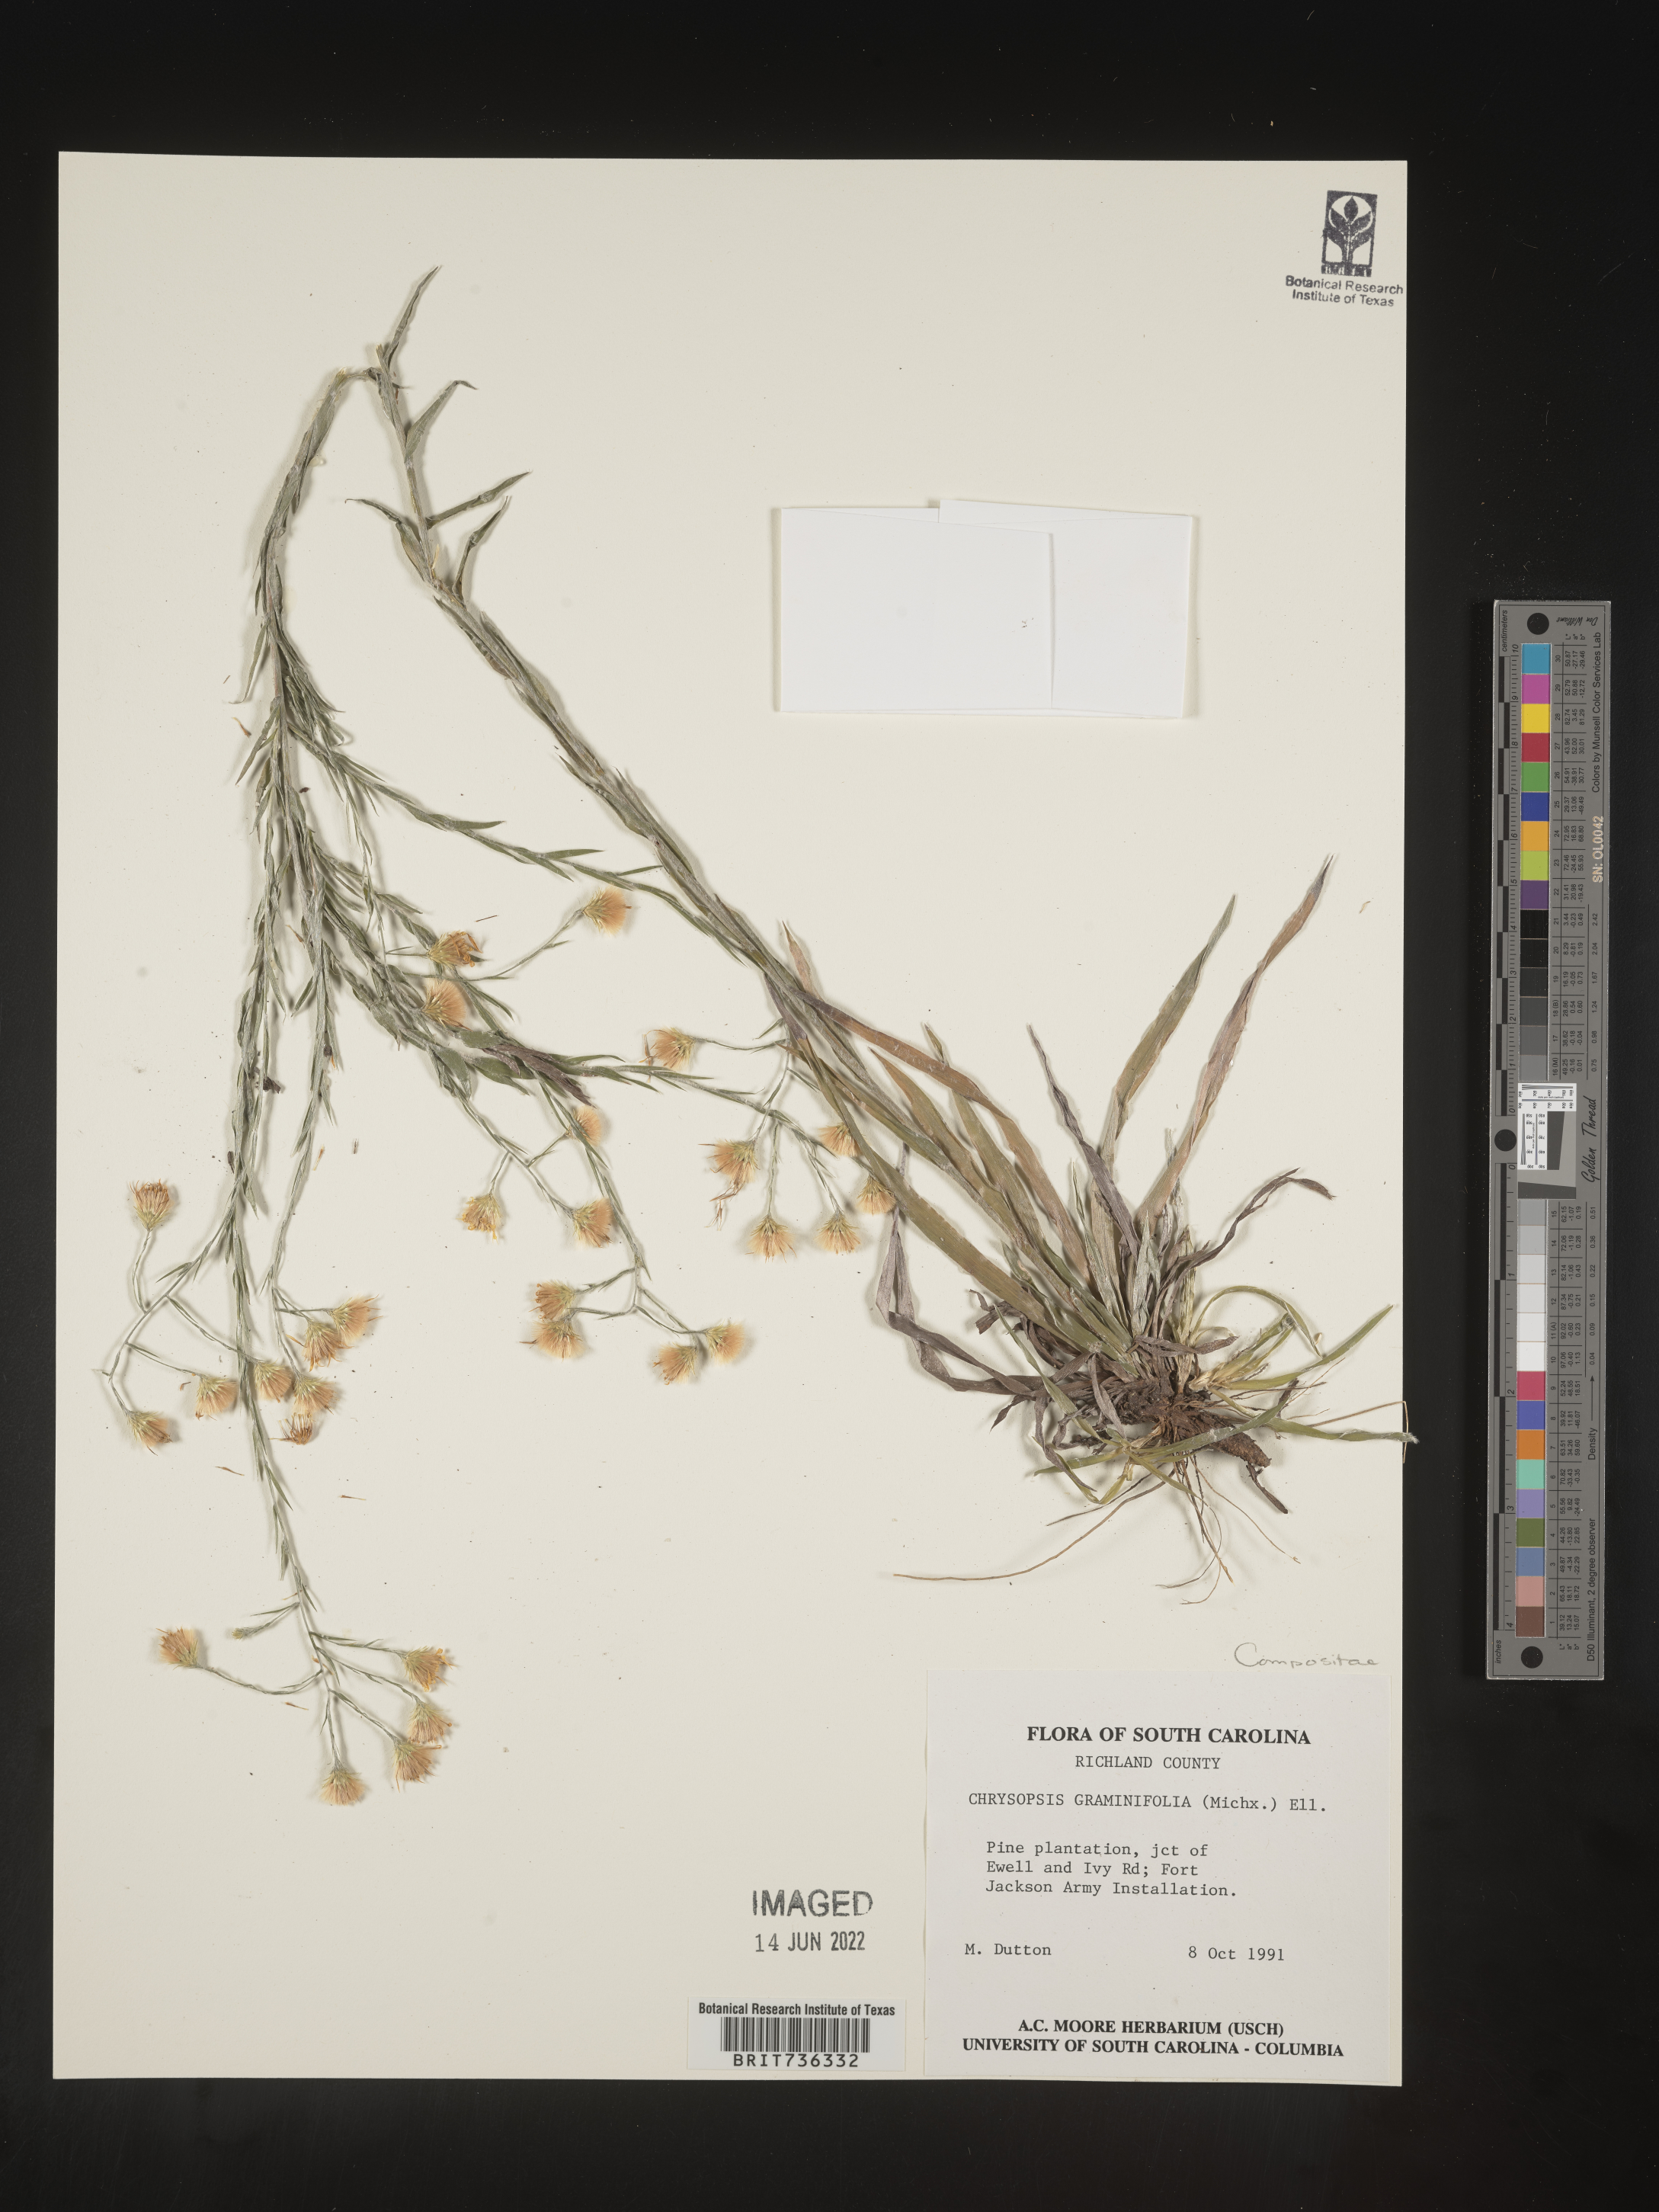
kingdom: Plantae
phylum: Tracheophyta
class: Magnoliopsida
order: Asterales
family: Asteraceae
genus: Pityopsis
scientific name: Pityopsis microcephala
